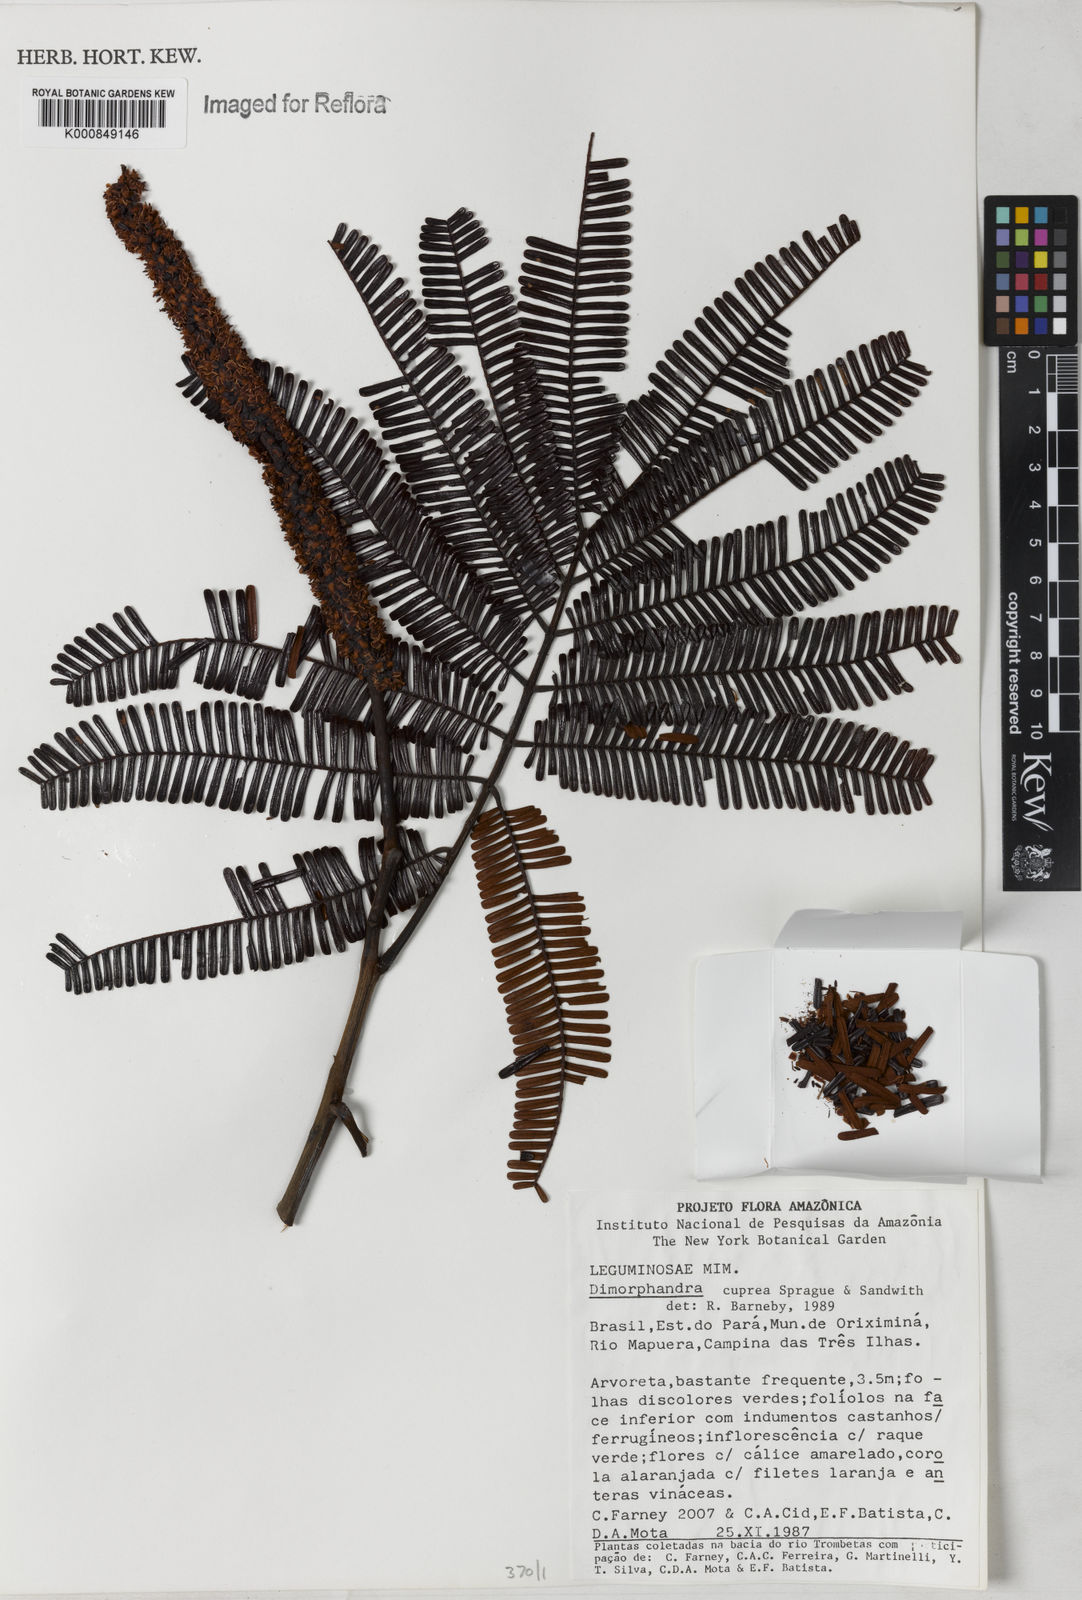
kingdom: Plantae
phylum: Tracheophyta
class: Magnoliopsida
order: Fabales
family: Fabaceae
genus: Dimorphandra
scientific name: Dimorphandra cuprea
